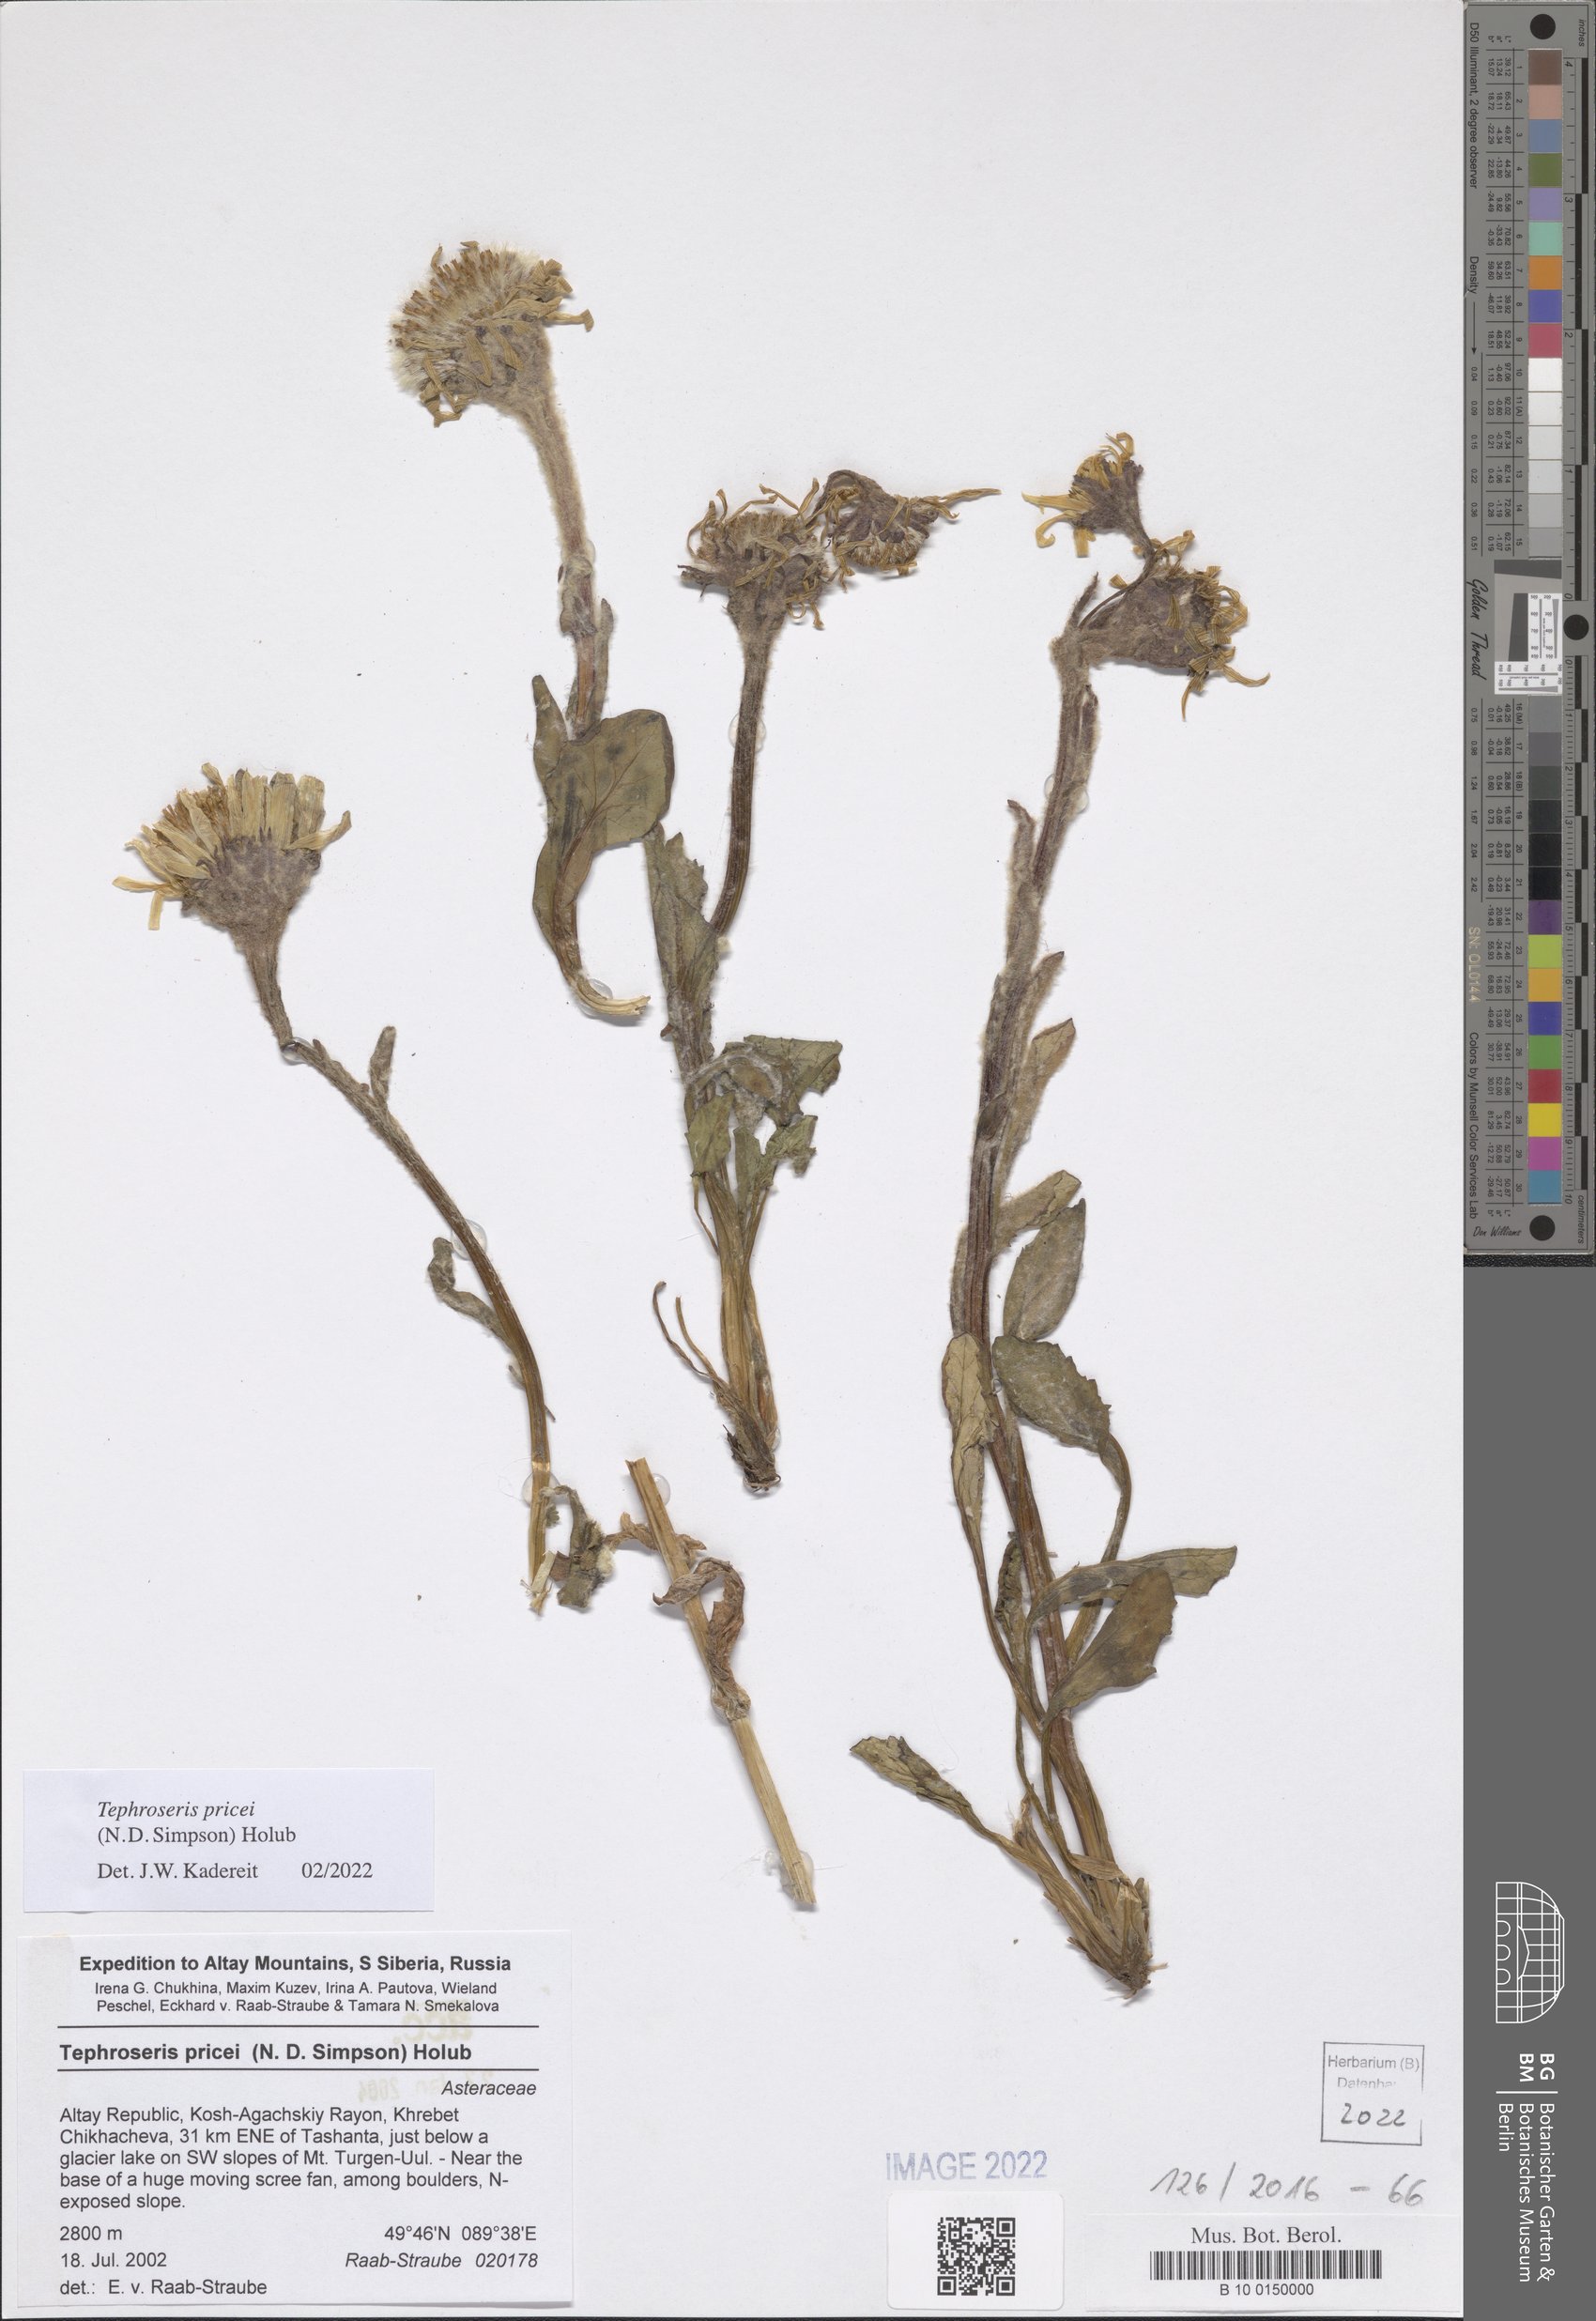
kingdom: Plantae
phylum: Tracheophyta
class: Magnoliopsida
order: Asterales
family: Asteraceae
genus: Tephroseris
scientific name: Tephroseris pricei
